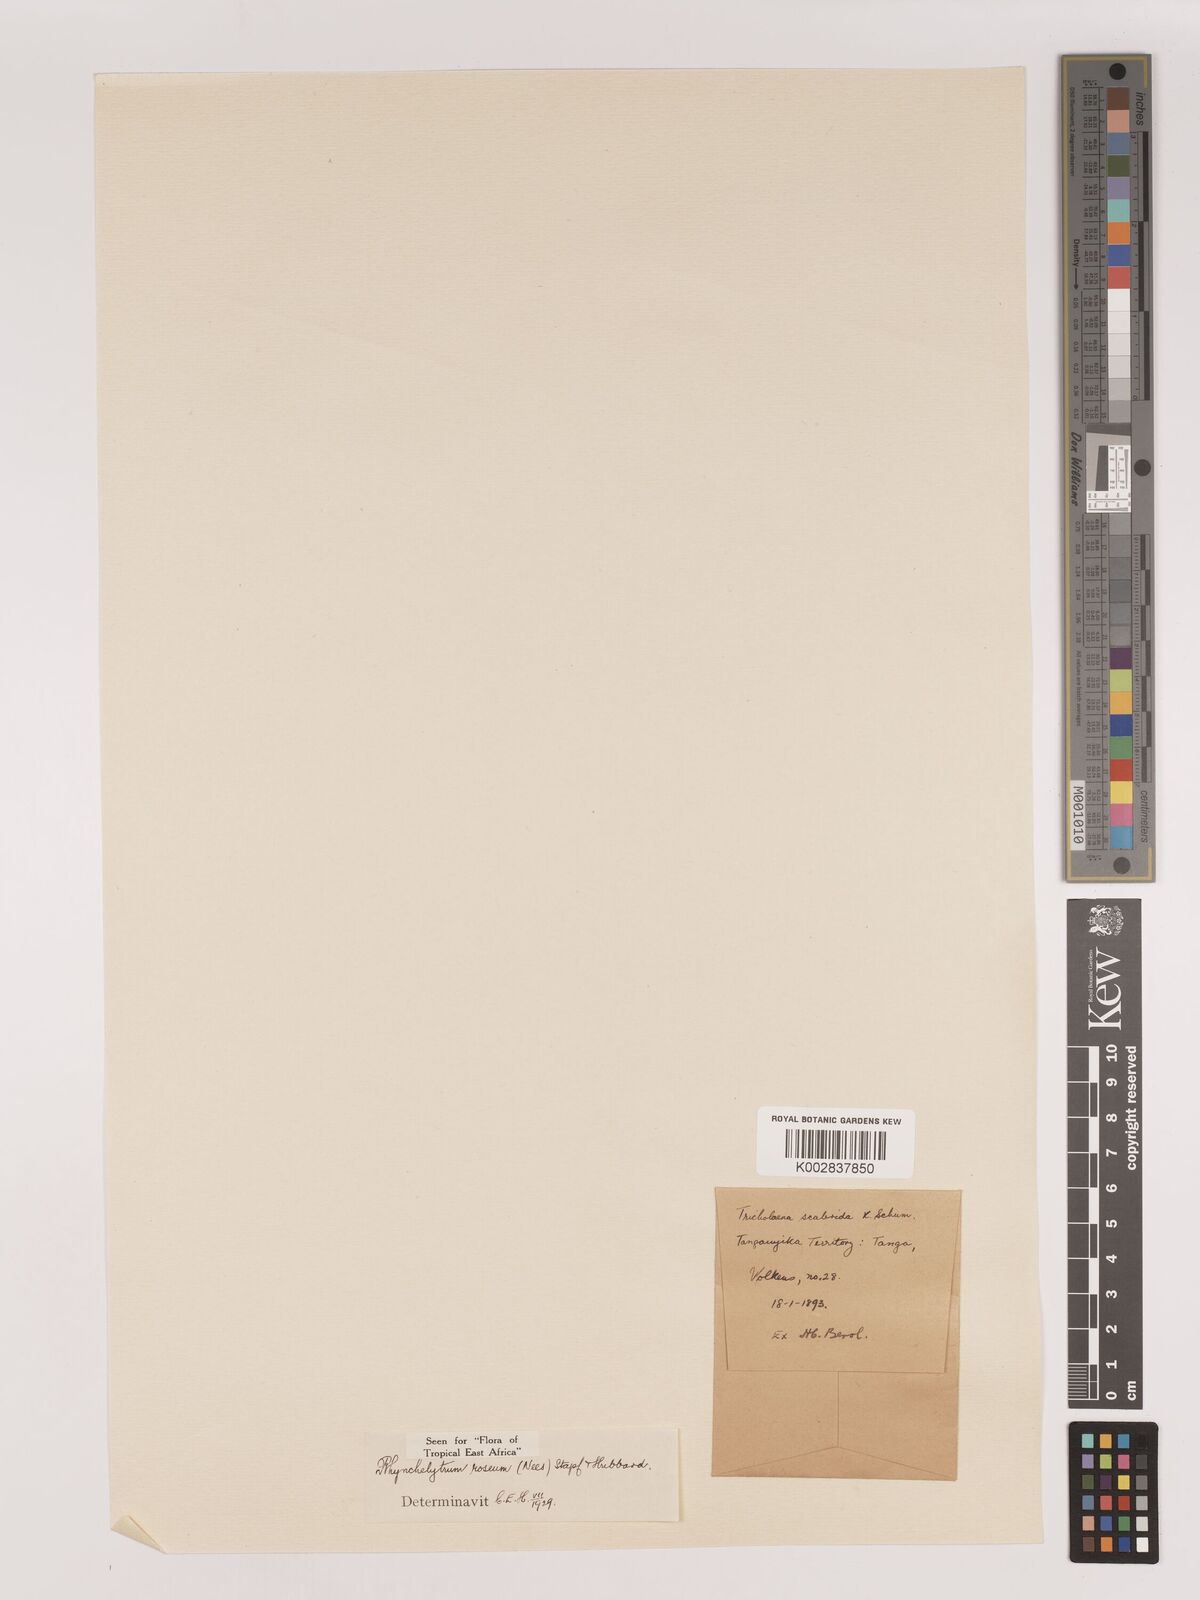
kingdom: Plantae
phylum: Tracheophyta
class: Liliopsida
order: Poales
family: Poaceae
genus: Melinis
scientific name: Melinis repens
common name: Rose natal grass
